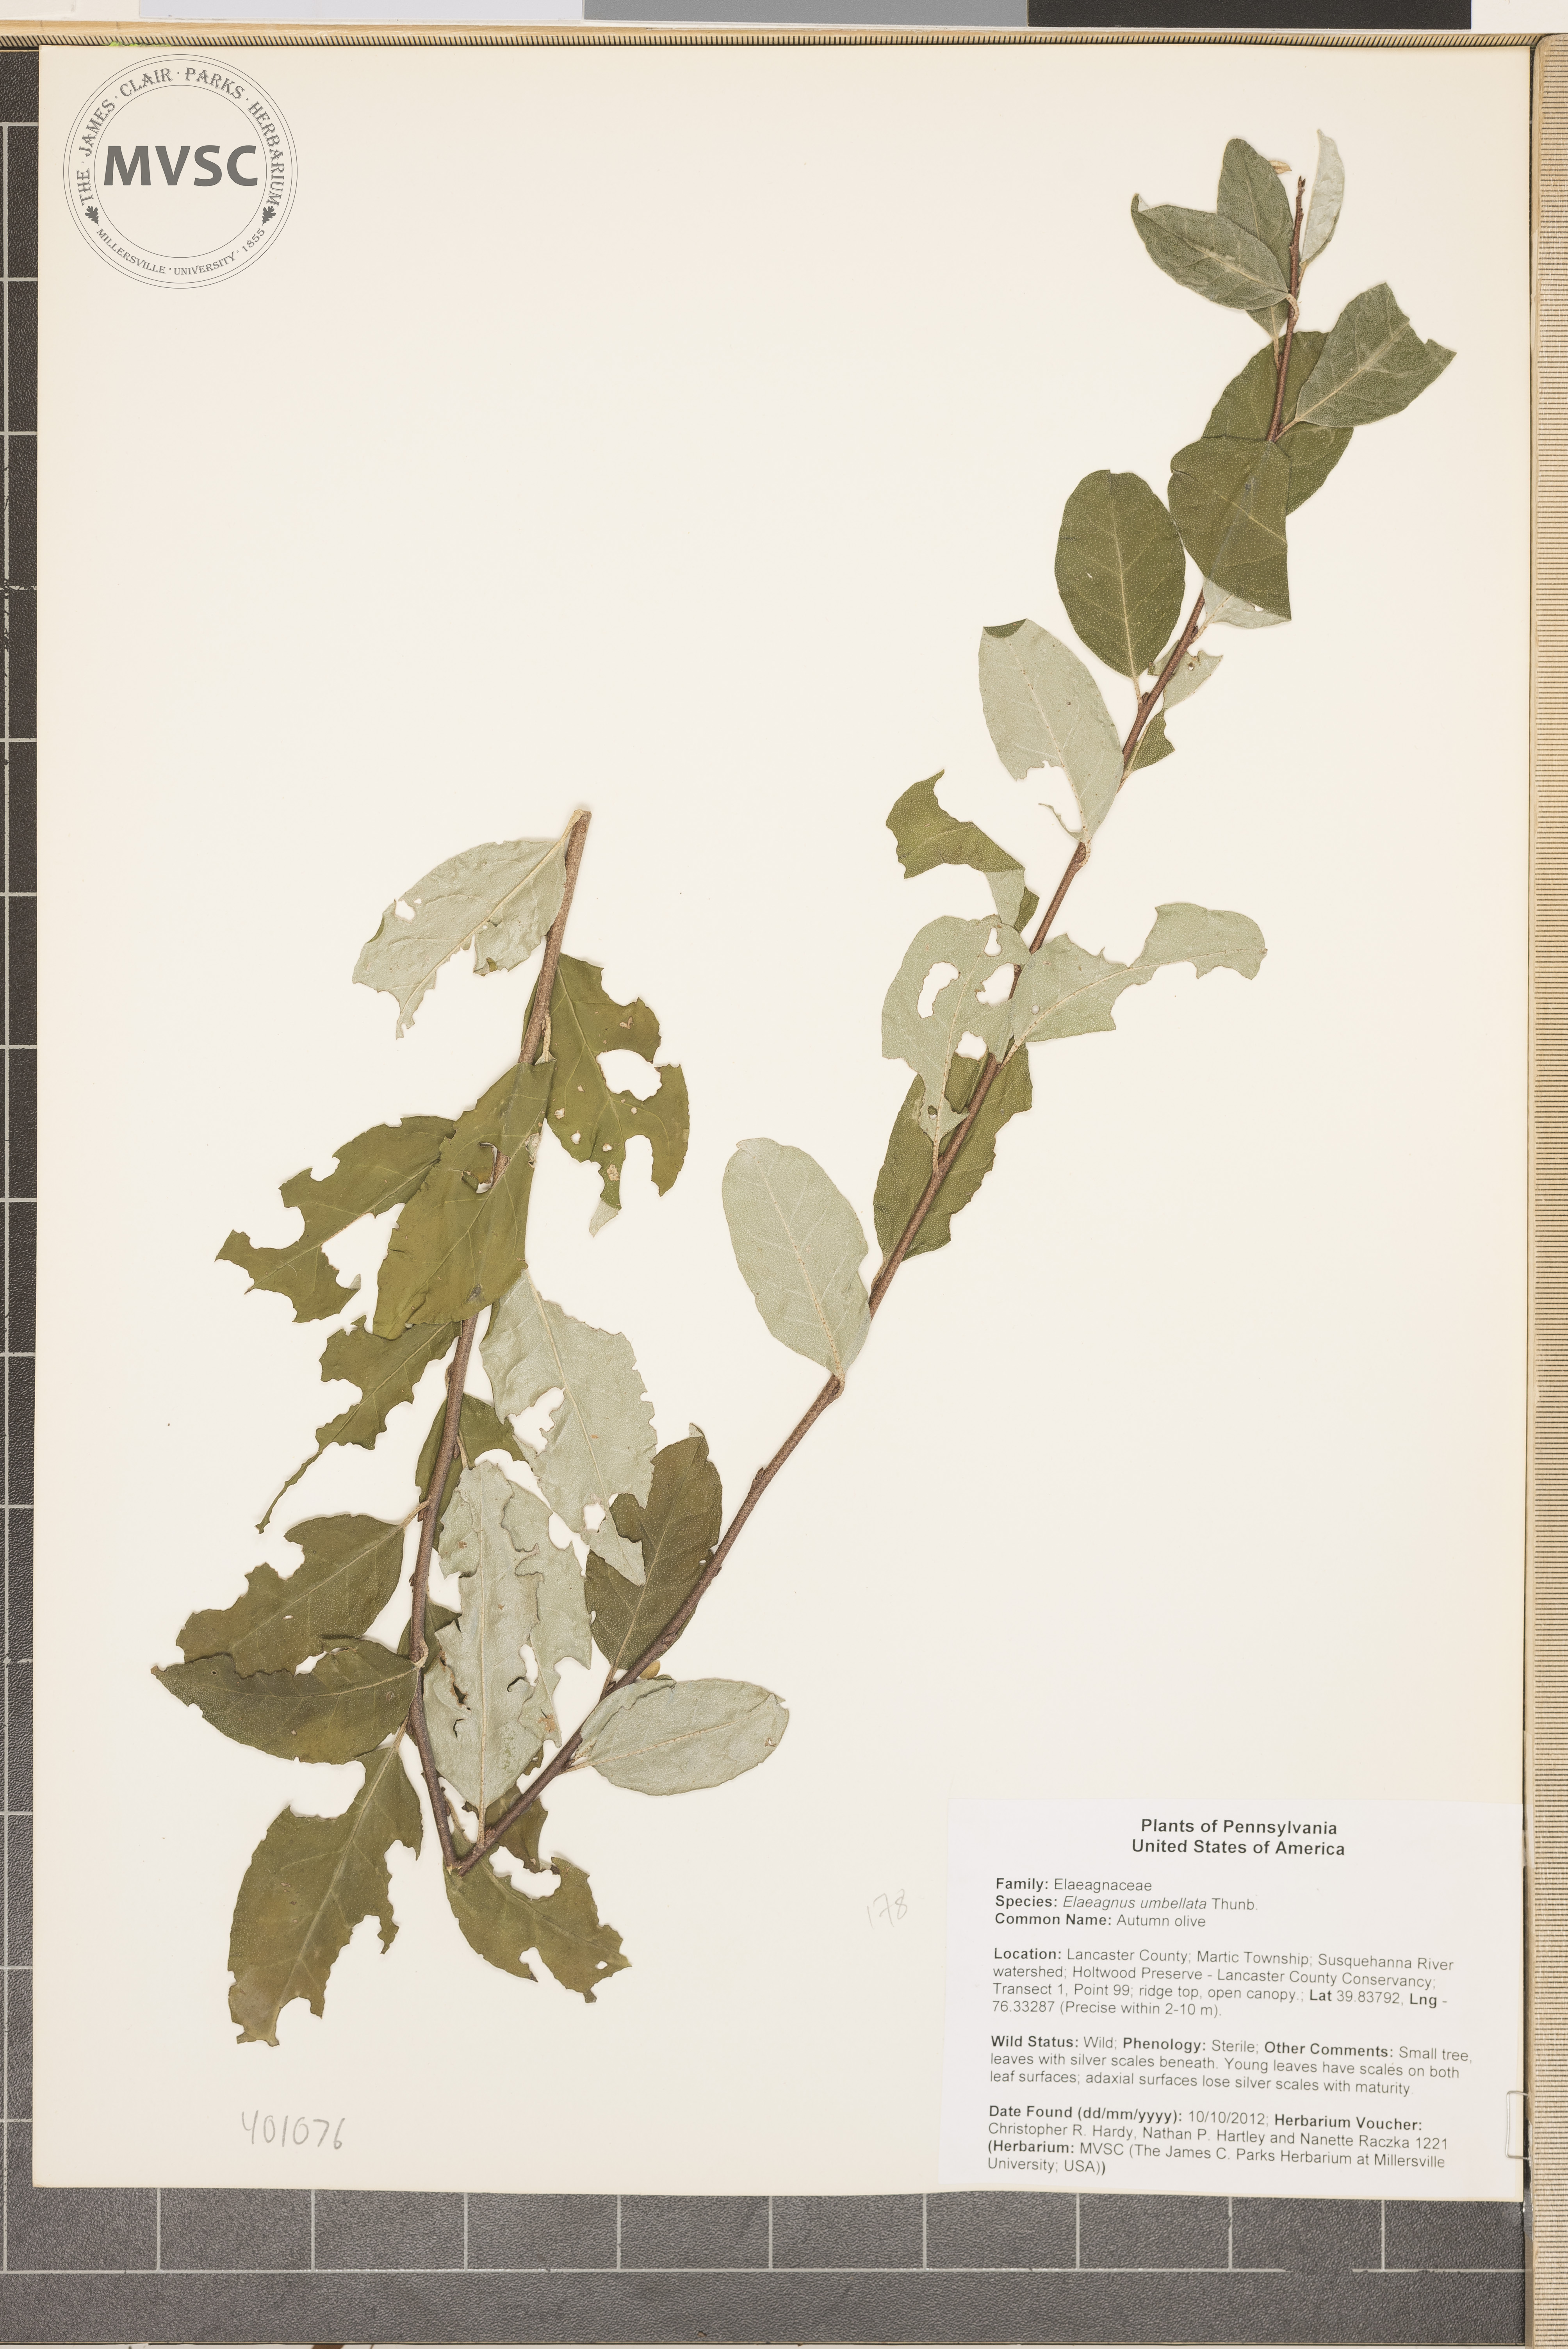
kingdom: Plantae
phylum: Tracheophyta
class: Magnoliopsida
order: Rosales
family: Elaeagnaceae
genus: Elaeagnus
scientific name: Elaeagnus umbellata
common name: Autumn-olive
